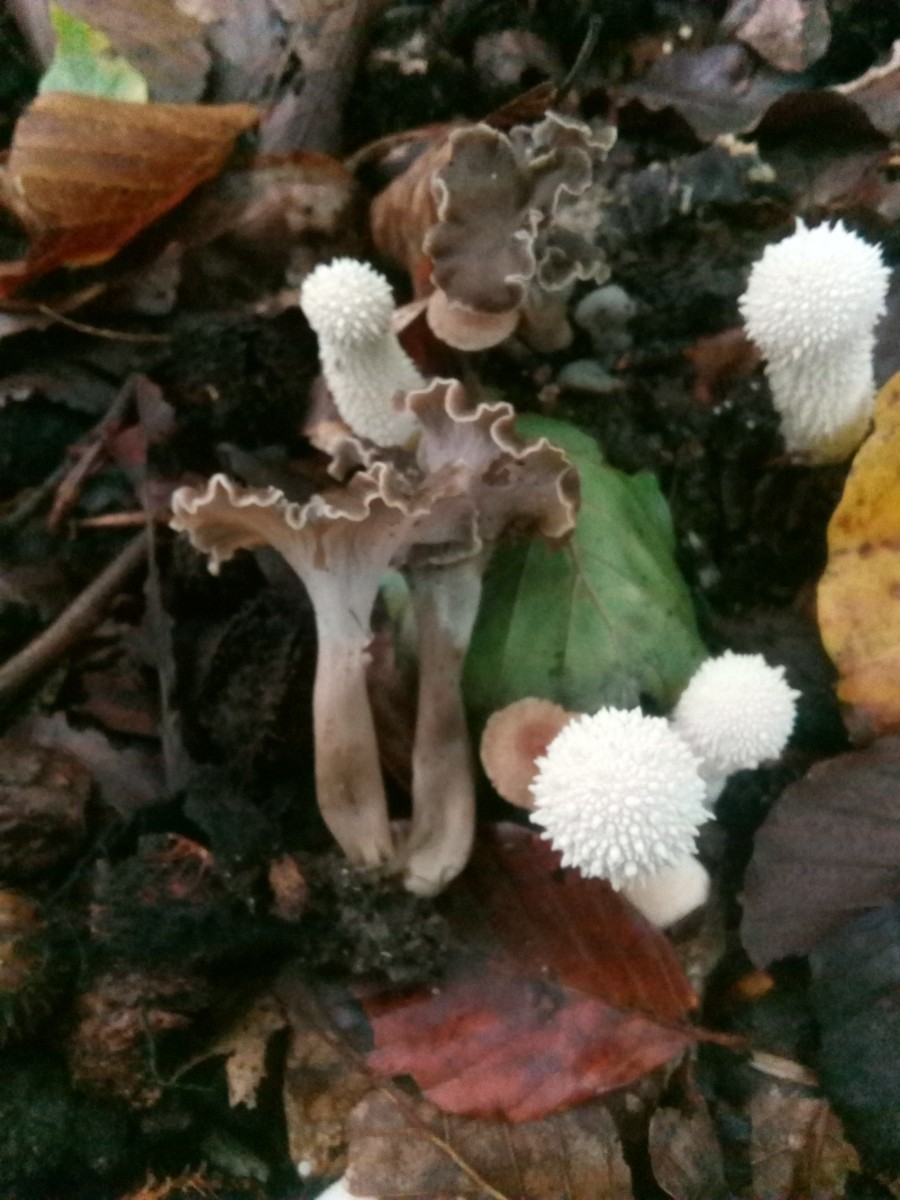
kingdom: Fungi
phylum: Basidiomycota
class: Agaricomycetes
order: Cantharellales
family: Hydnaceae
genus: Craterellus
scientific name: Craterellus undulatus
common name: liden kantarel
